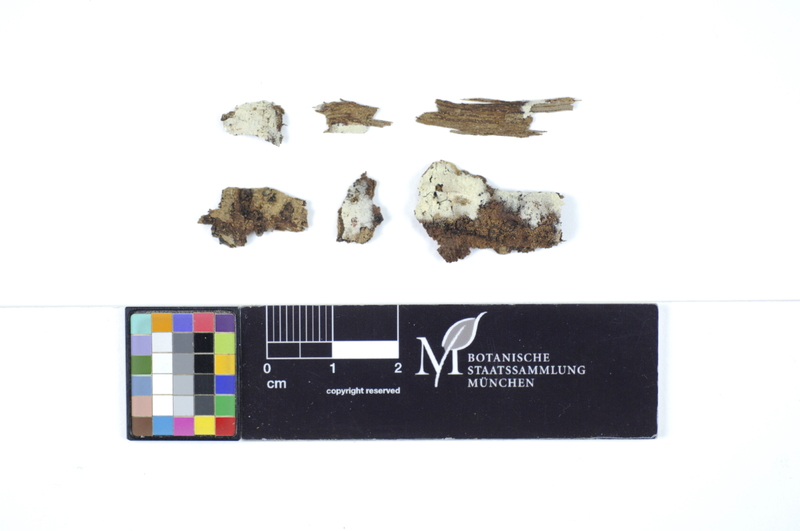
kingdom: Fungi
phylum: Basidiomycota
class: Agaricomycetes
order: Polyporales
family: Hyphodermataceae
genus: Hyphoderma
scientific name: Hyphoderma nemorale
